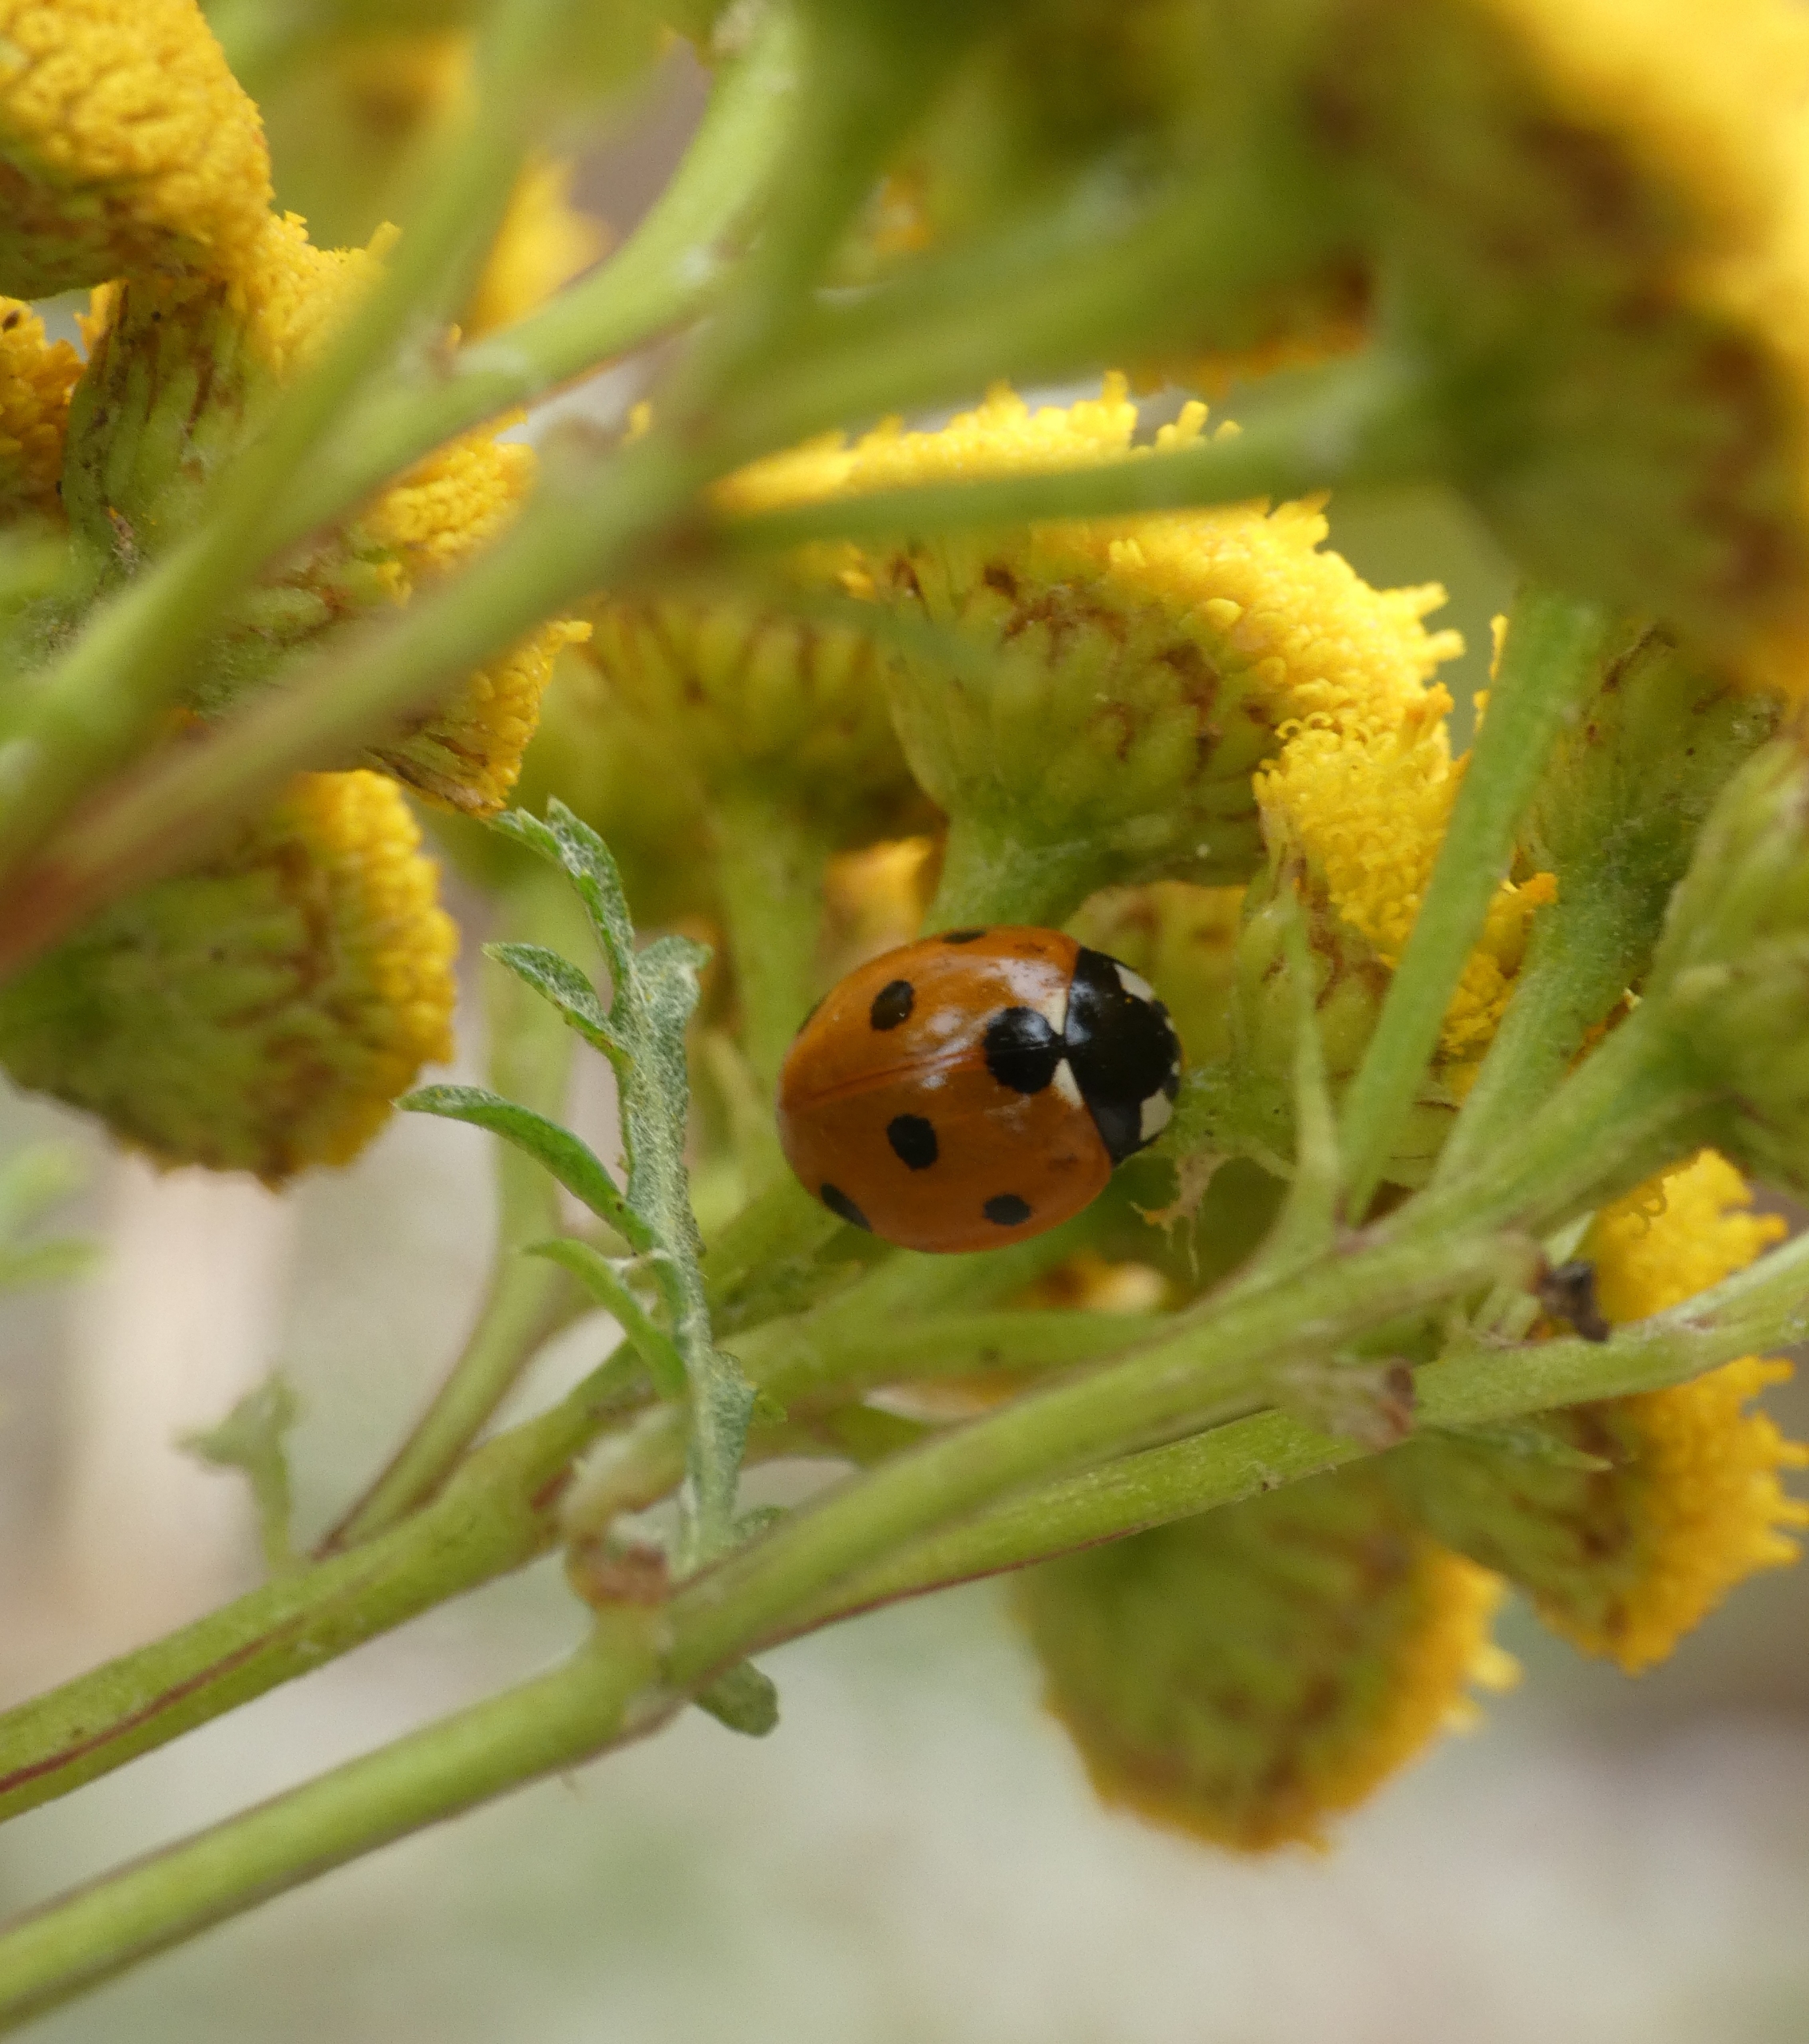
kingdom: Animalia
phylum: Arthropoda
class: Insecta
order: Coleoptera
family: Coccinellidae
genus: Coccinella
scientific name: Coccinella septempunctata
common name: Syvplettet mariehøne
